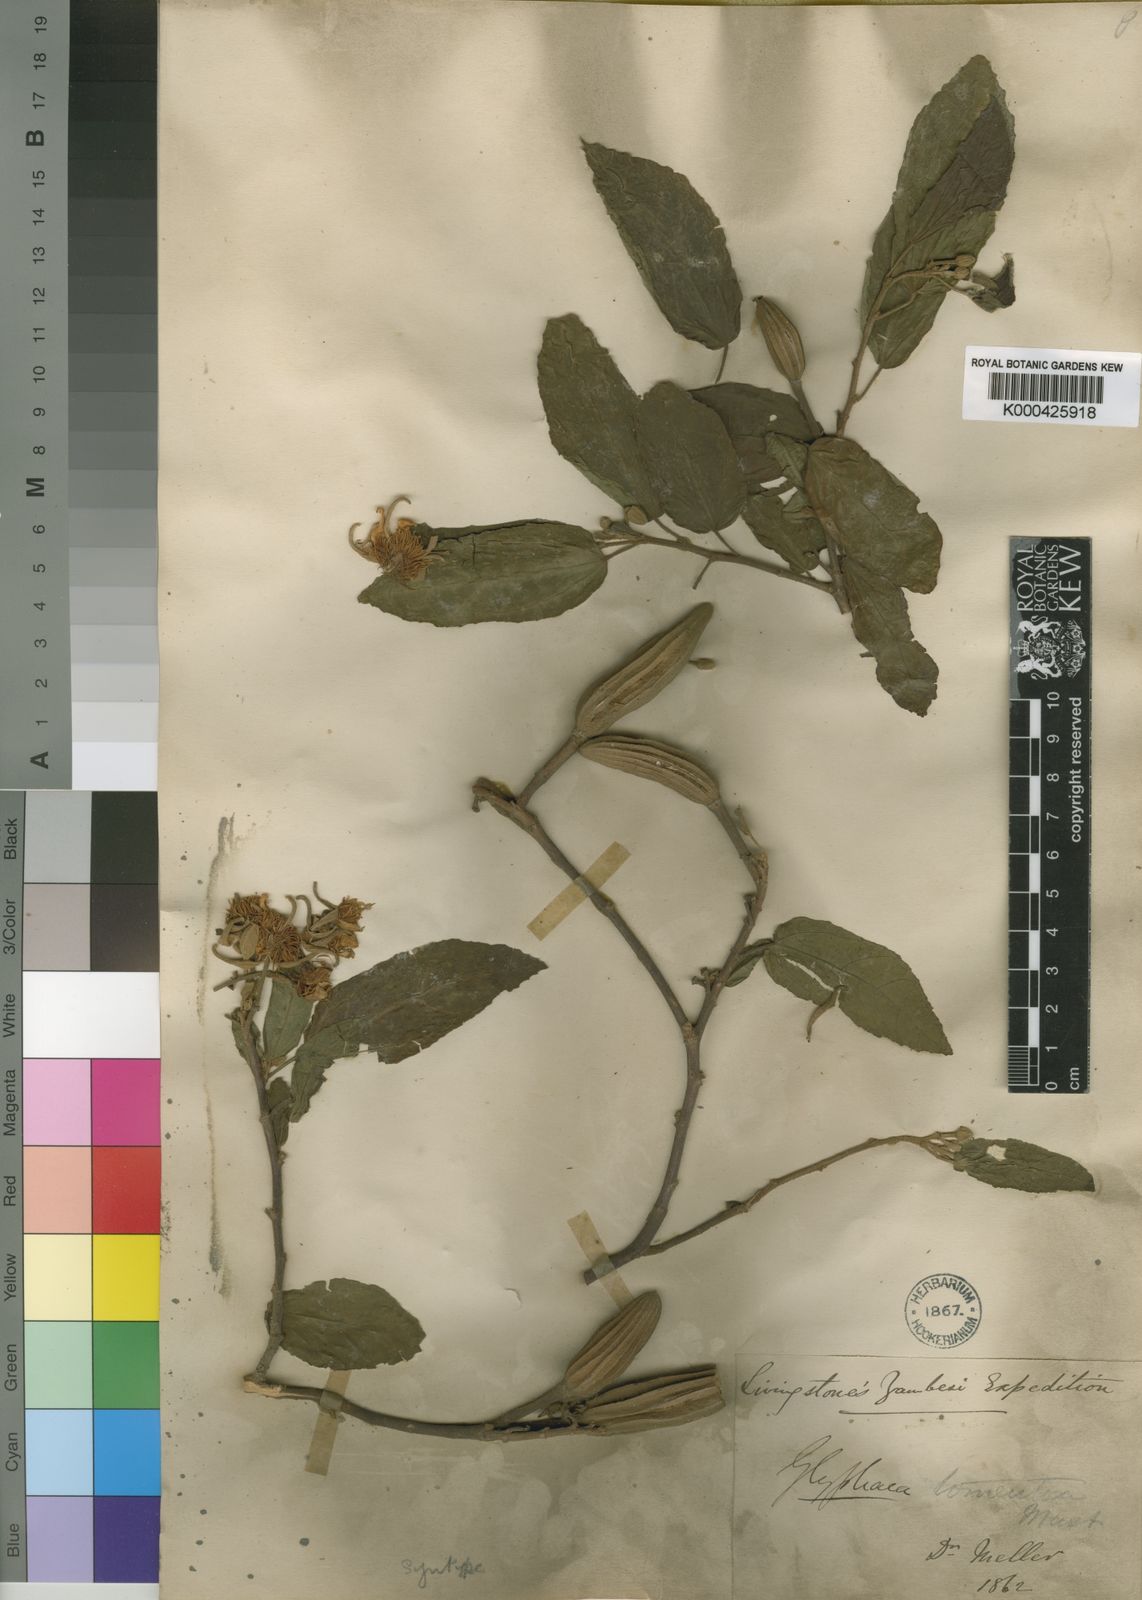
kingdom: Plantae
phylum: Tracheophyta
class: Magnoliopsida
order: Malvales
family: Malvaceae
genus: Glyphaea
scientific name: Glyphaea tomentosa
